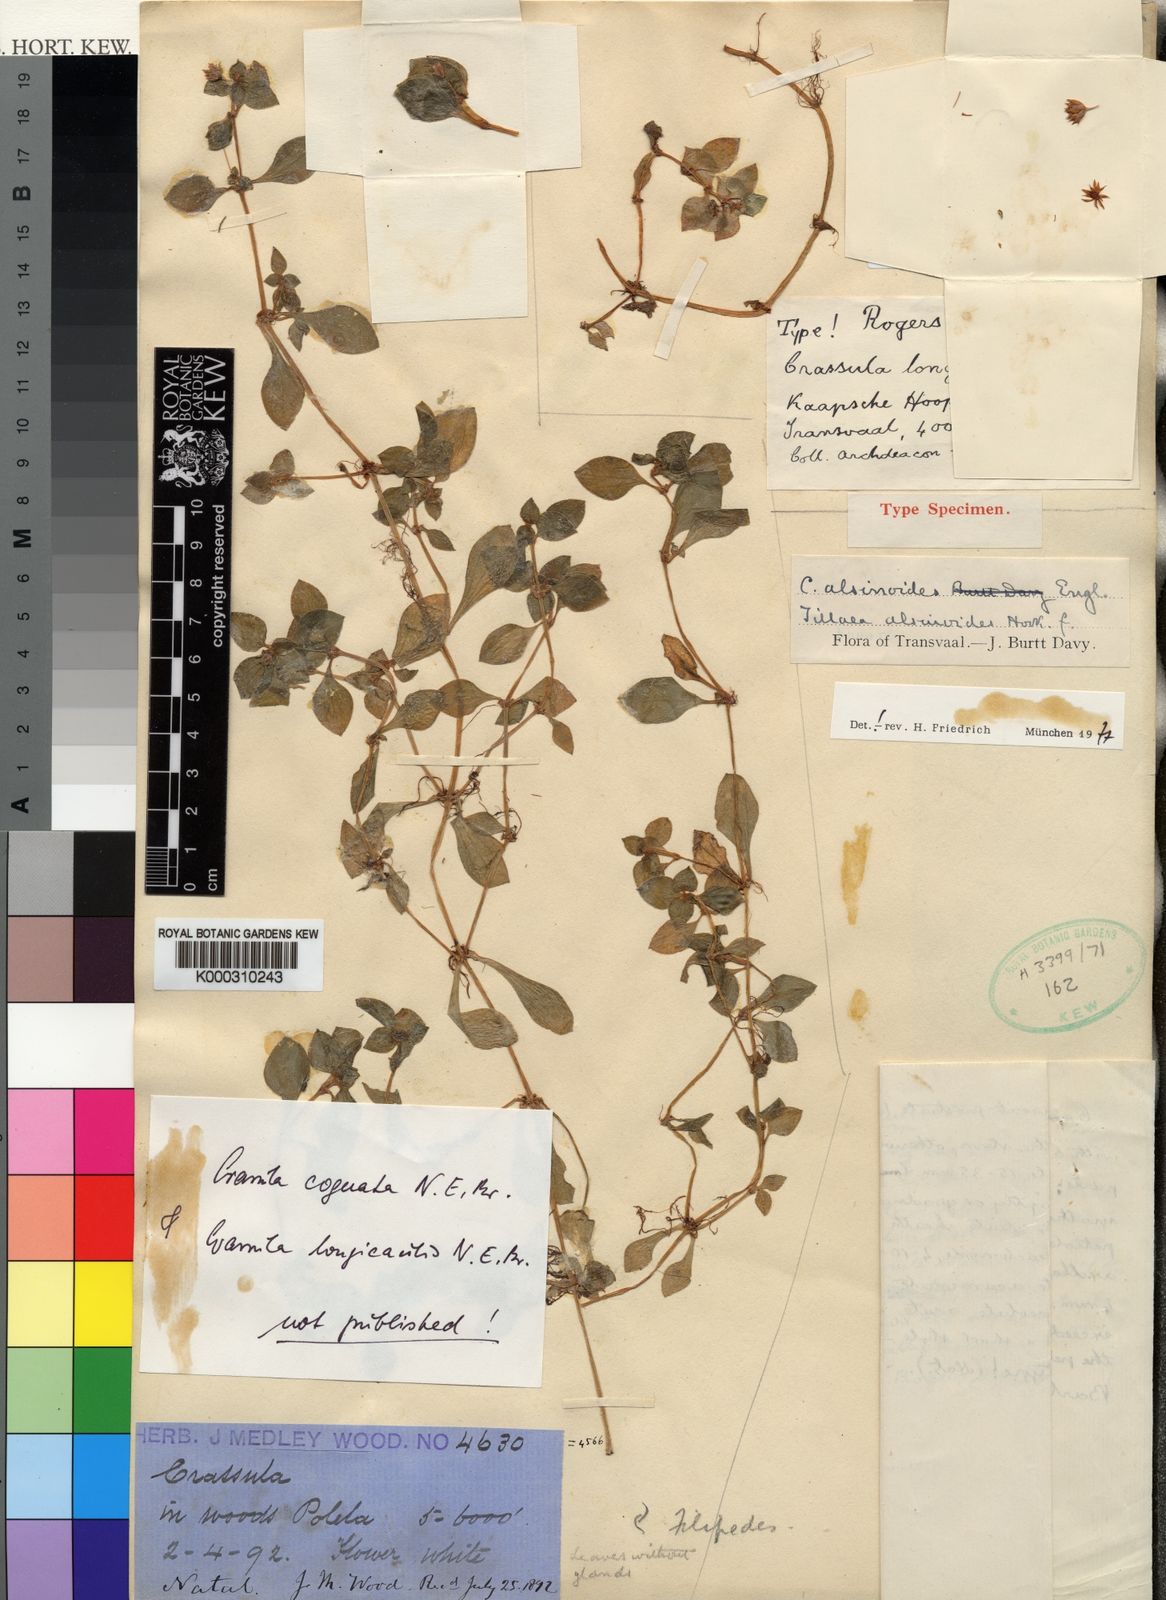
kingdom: Plantae
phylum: Tracheophyta
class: Magnoliopsida
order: Saxifragales
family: Crassulaceae
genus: Crassula
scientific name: Crassula pellucida
